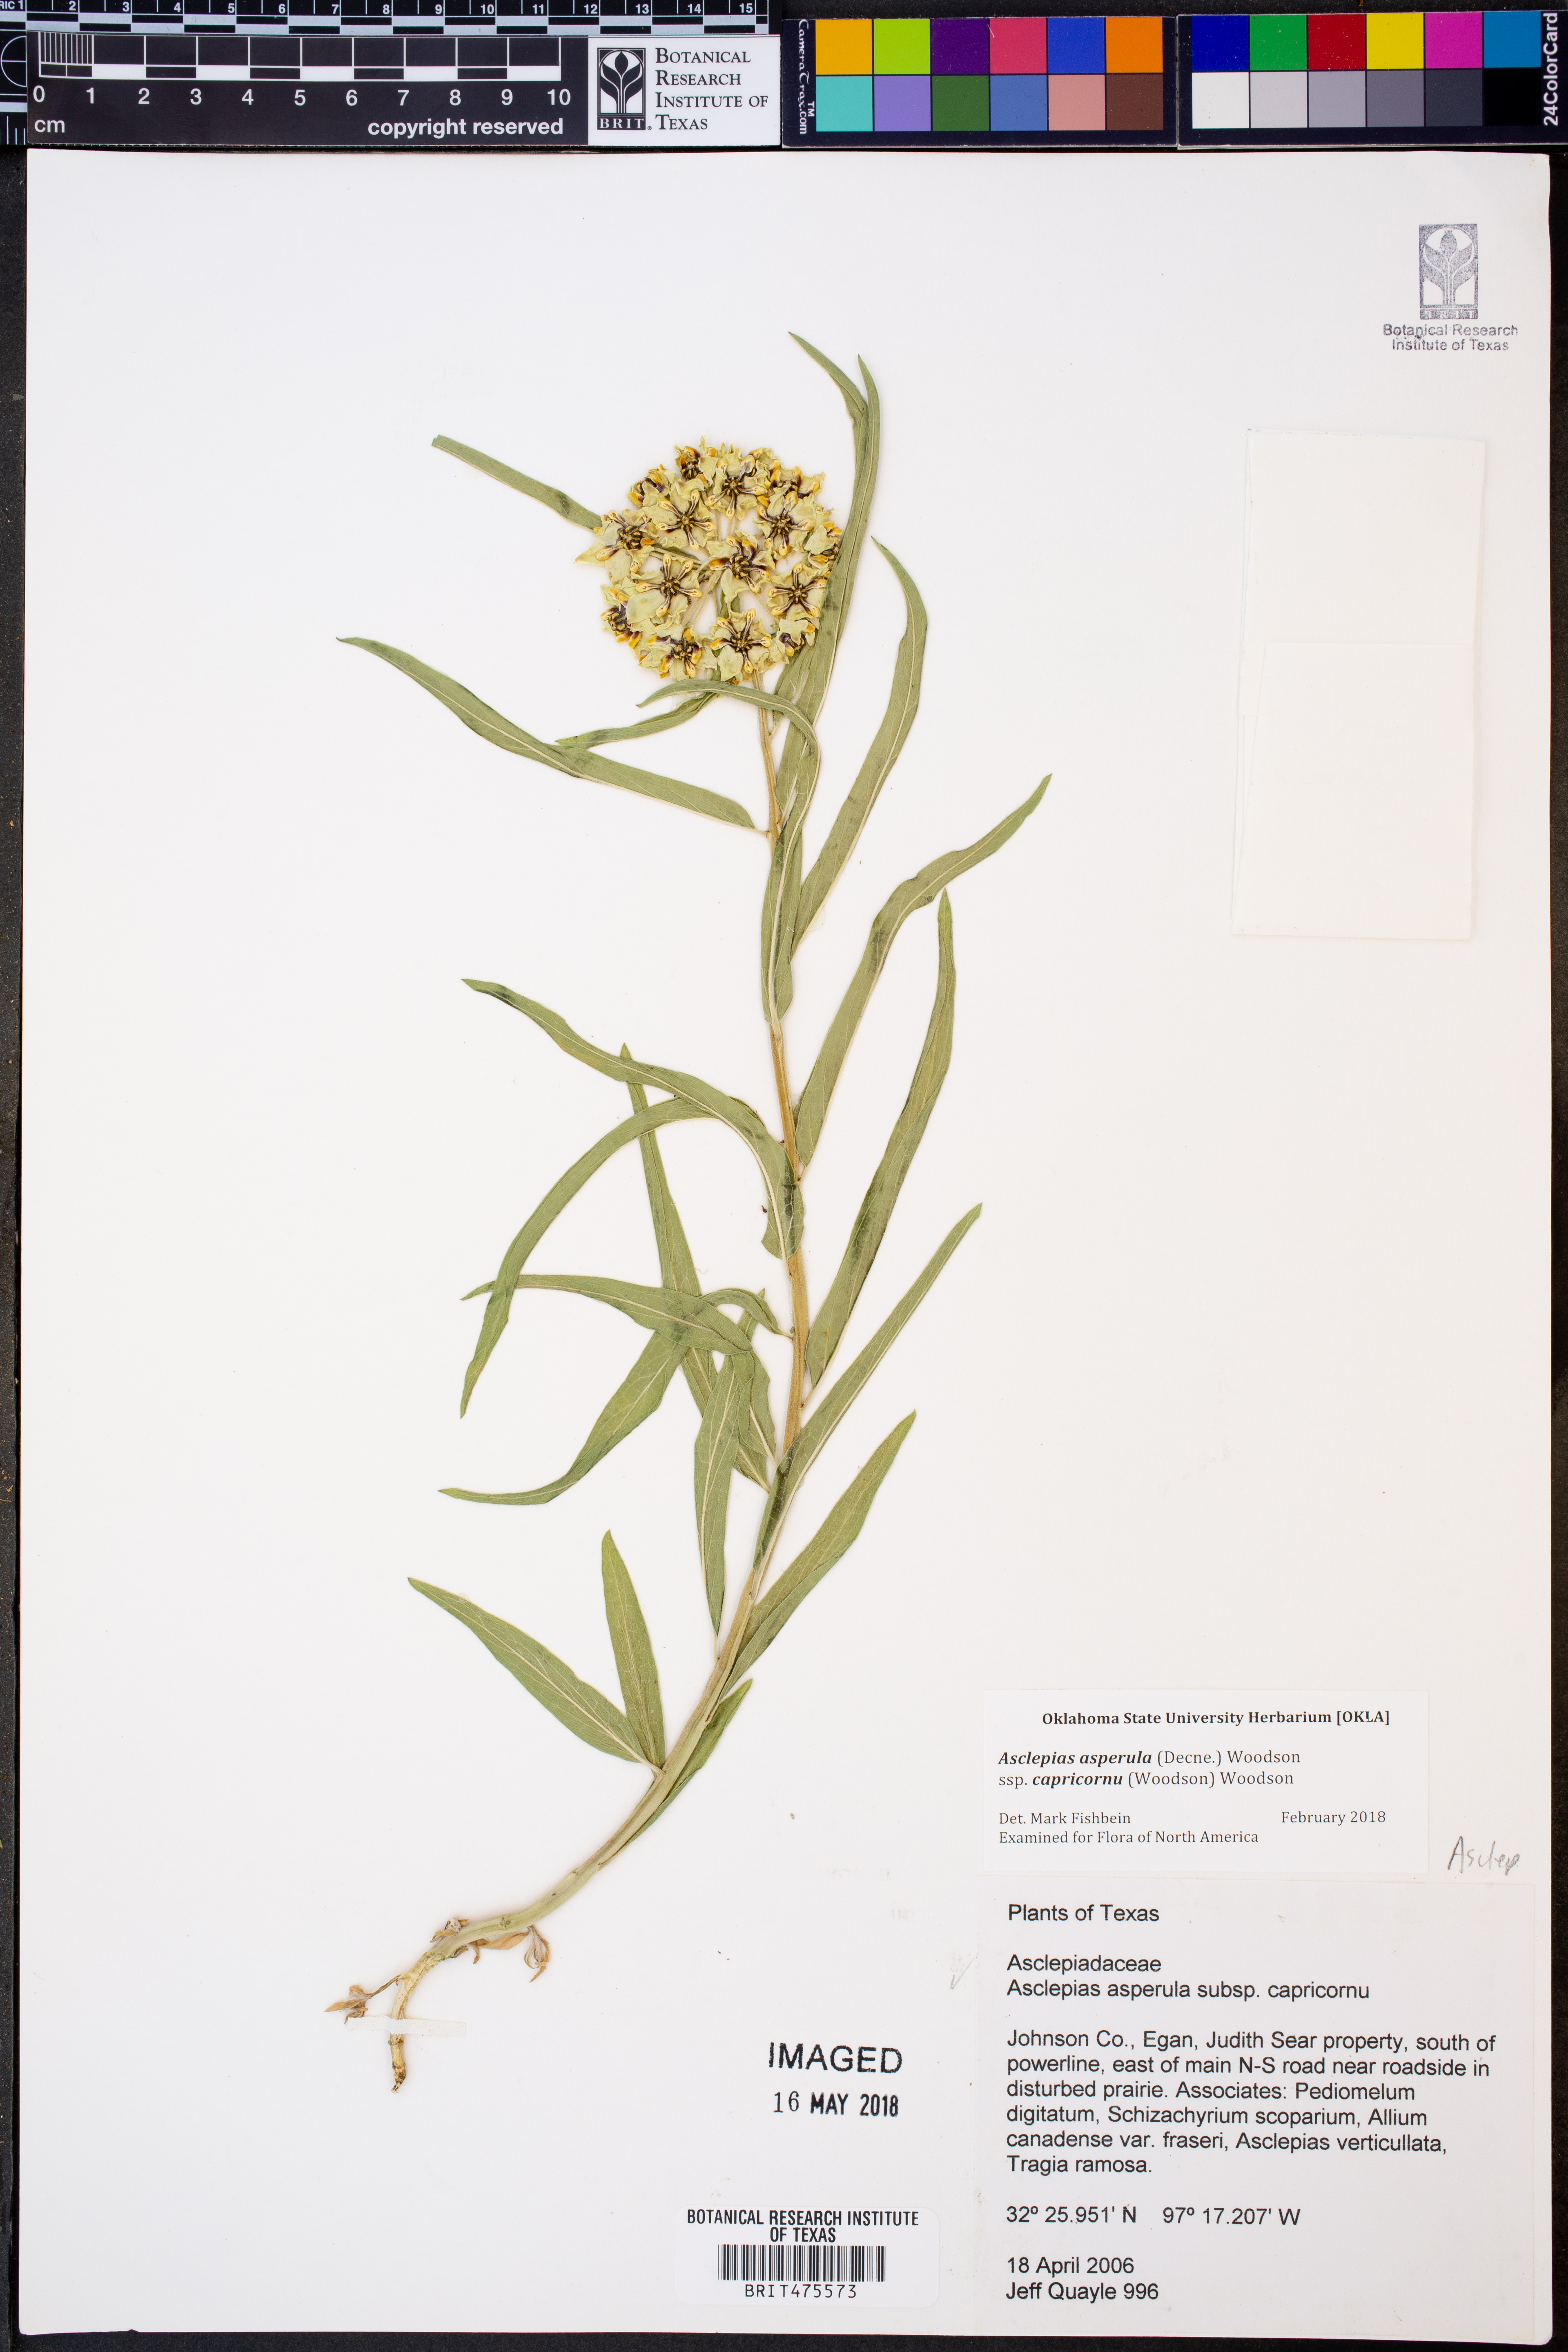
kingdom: Plantae
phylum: Tracheophyta
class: Magnoliopsida
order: Gentianales
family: Apocynaceae
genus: Asclepias
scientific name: Asclepias asperula
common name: Antelope horns
